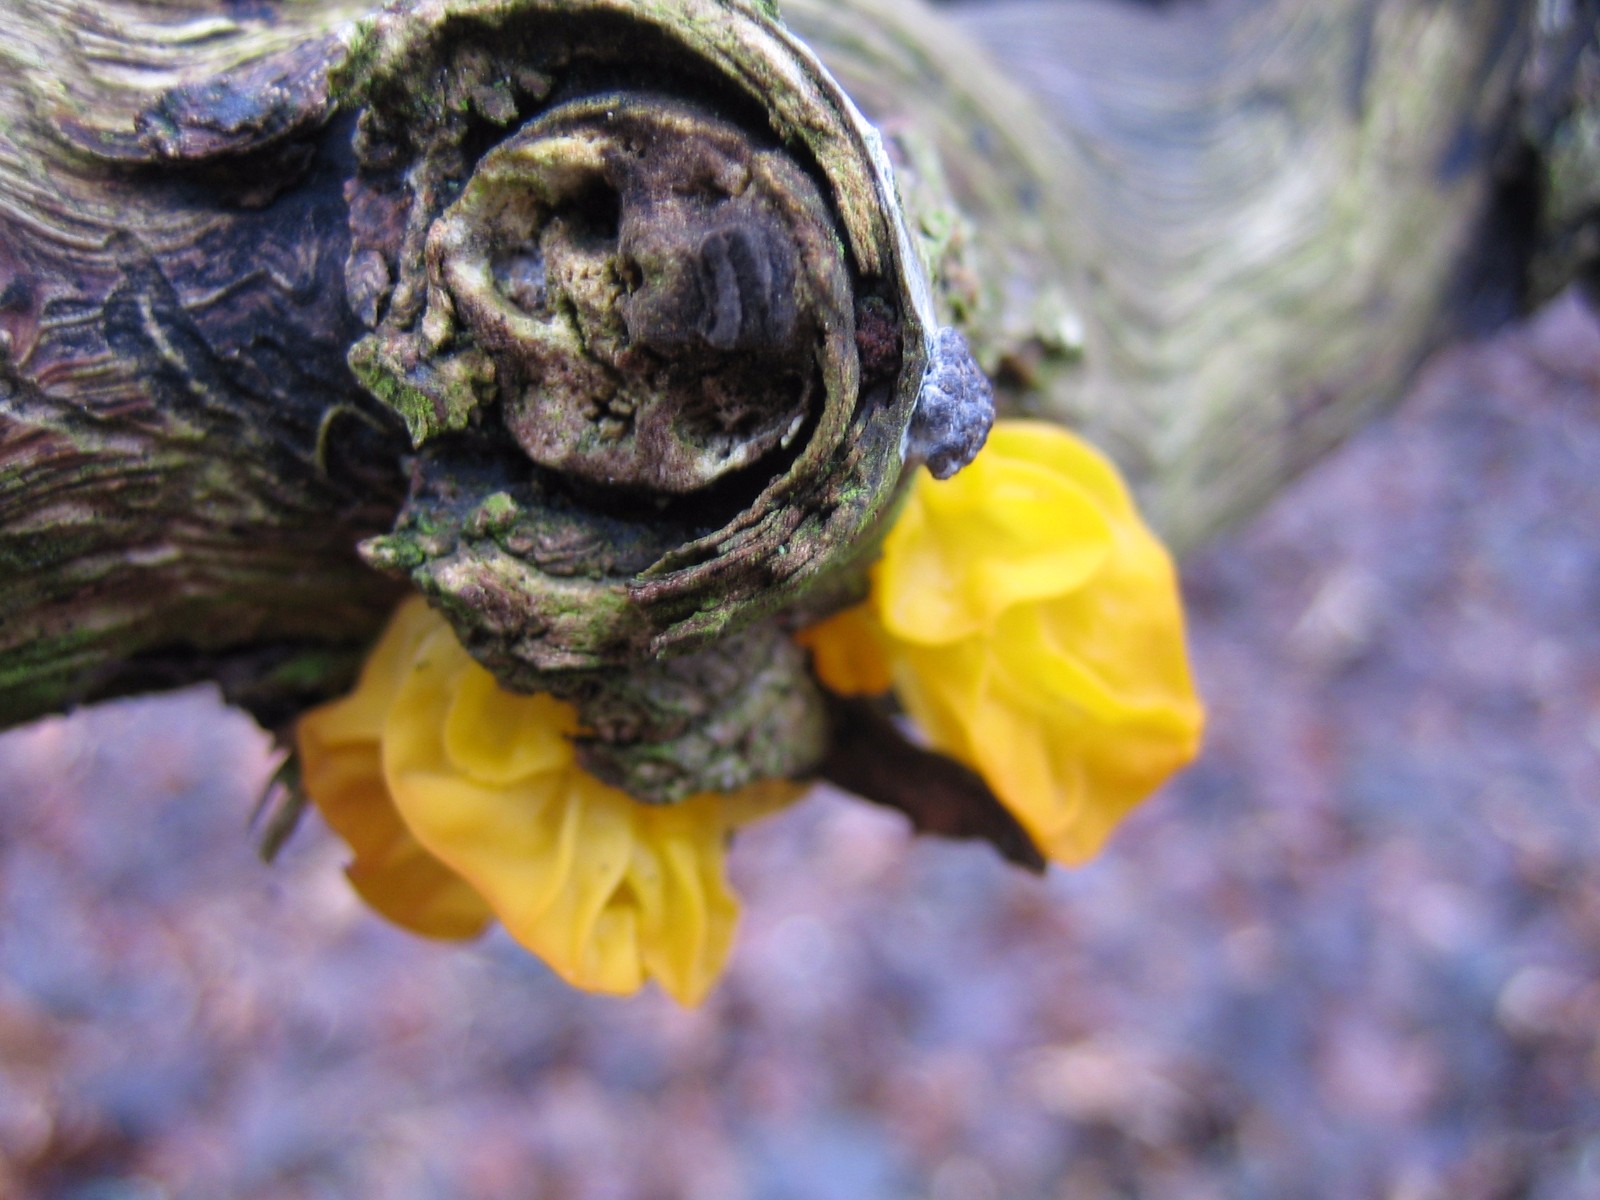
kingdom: Fungi
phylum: Basidiomycota
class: Tremellomycetes
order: Tremellales
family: Tremellaceae
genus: Tremella
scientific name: Tremella mesenterica
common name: gul bævresvamp
